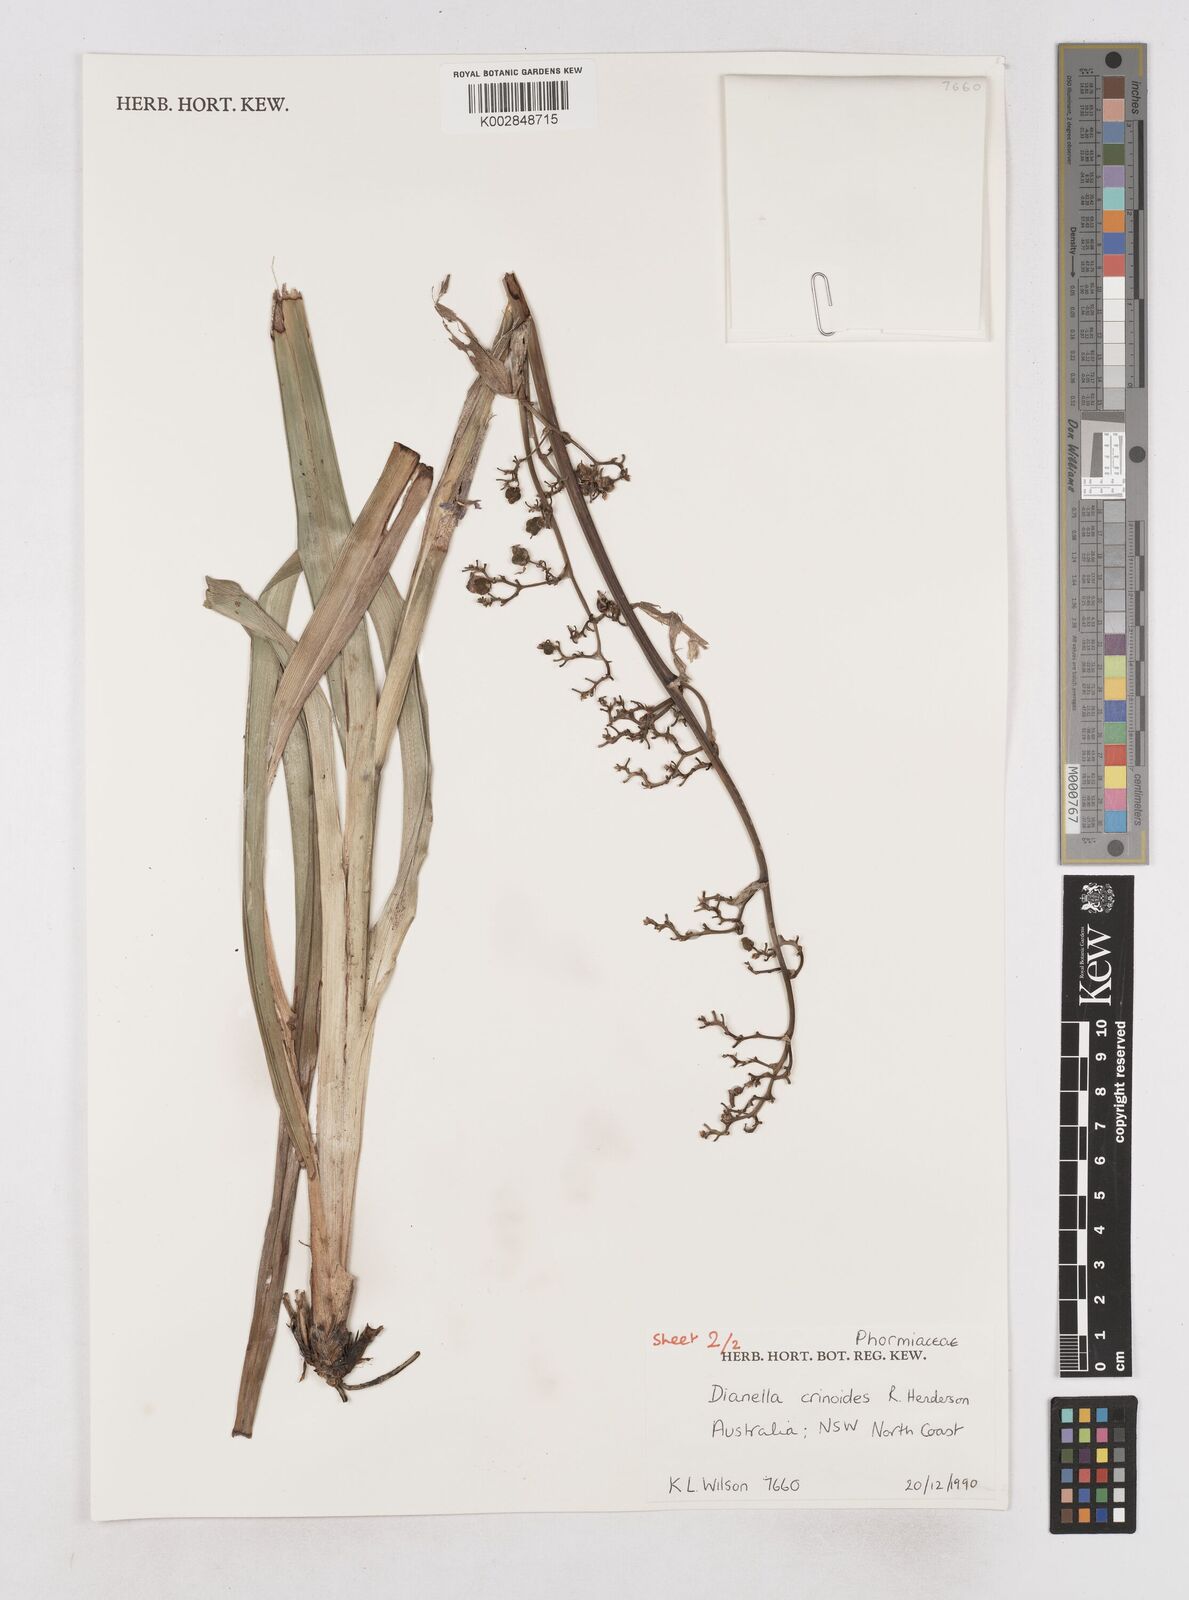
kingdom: Plantae
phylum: Tracheophyta
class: Liliopsida
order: Asparagales
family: Asphodelaceae
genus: Dianella
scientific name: Dianella crinoides
